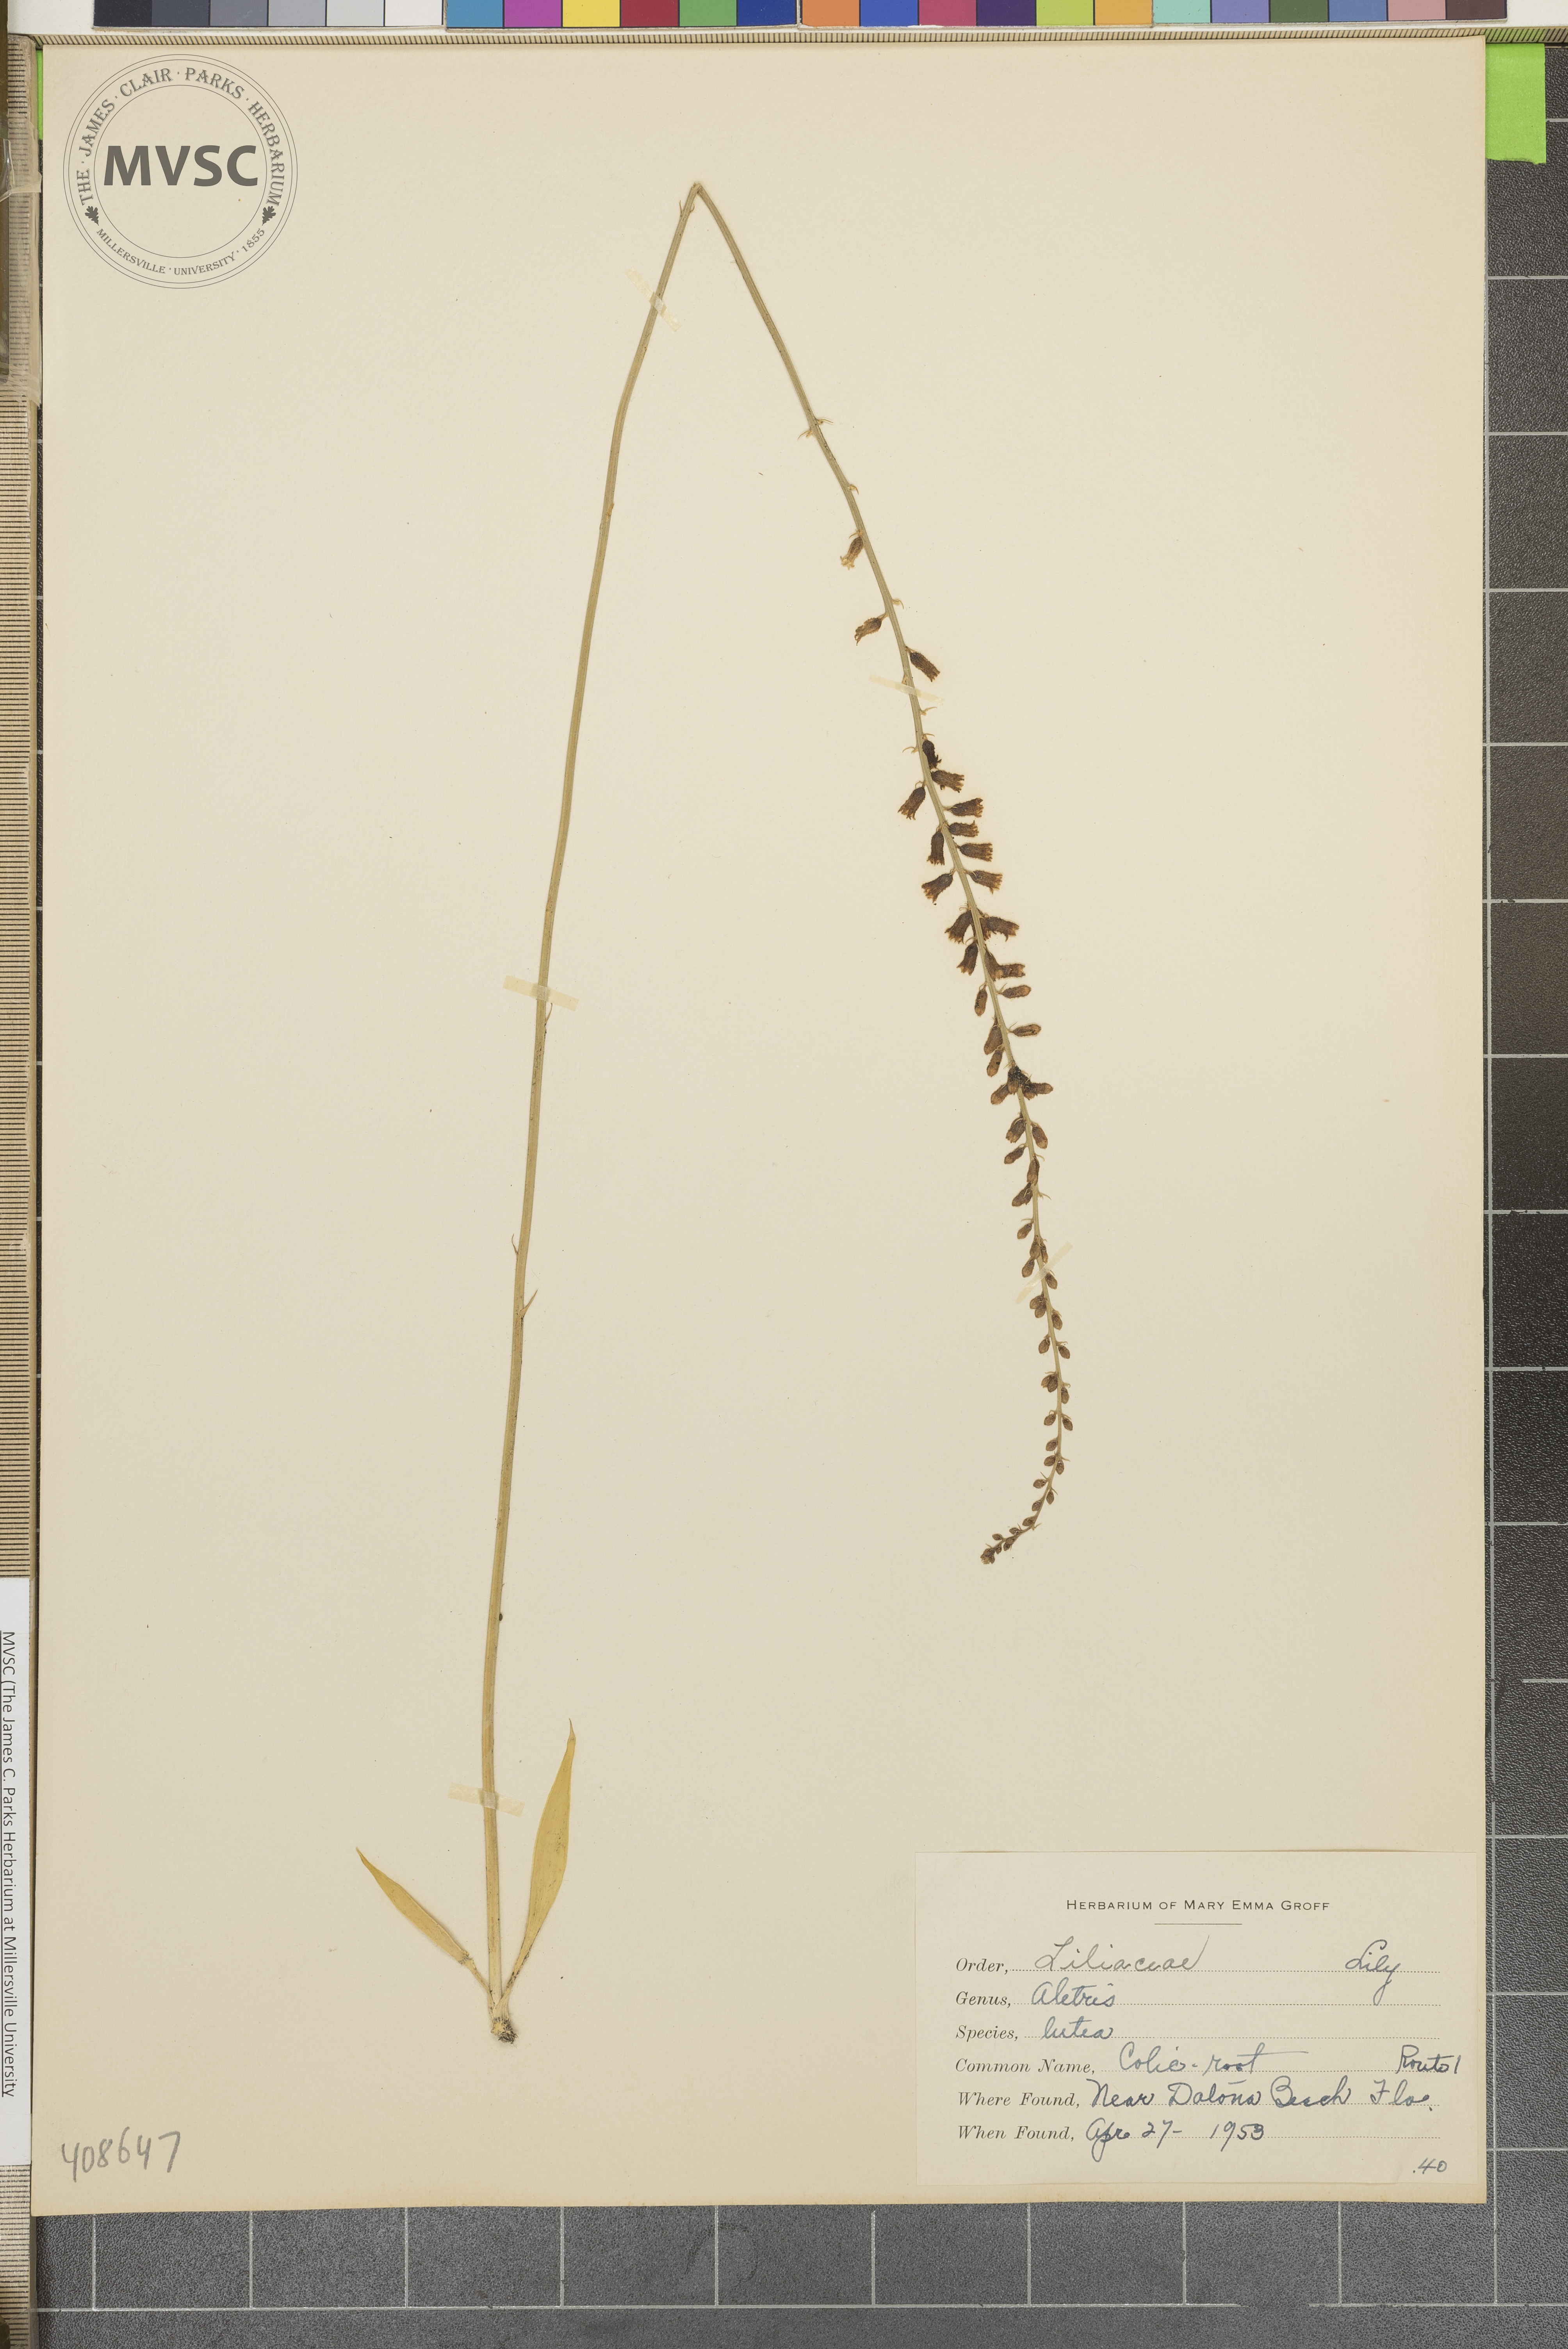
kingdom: Plantae
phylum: Tracheophyta
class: Liliopsida
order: Dioscoreales
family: Nartheciaceae
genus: Aletris
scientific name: Aletris lutea
